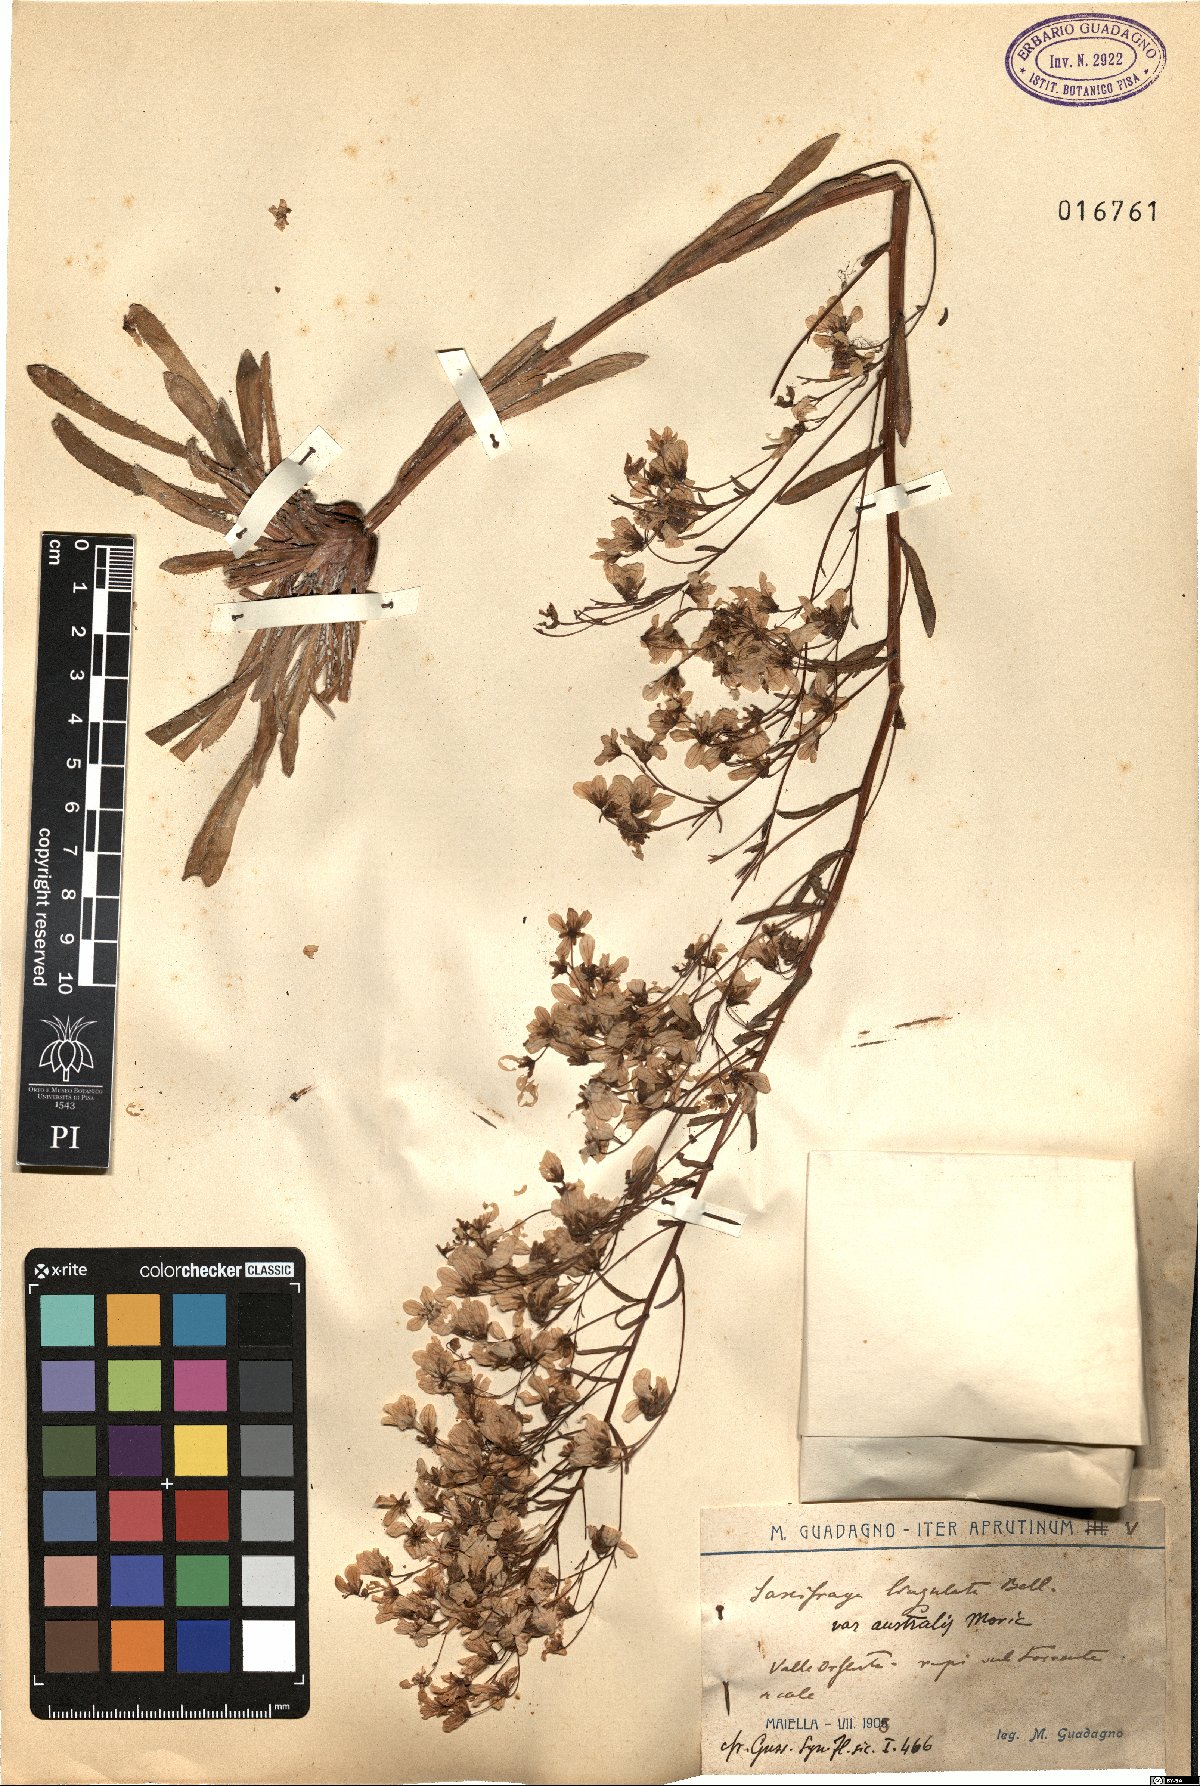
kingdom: Plantae
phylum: Tracheophyta
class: Magnoliopsida
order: Saxifragales
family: Saxifragaceae
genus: Saxifraga
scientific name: Saxifraga callosa
